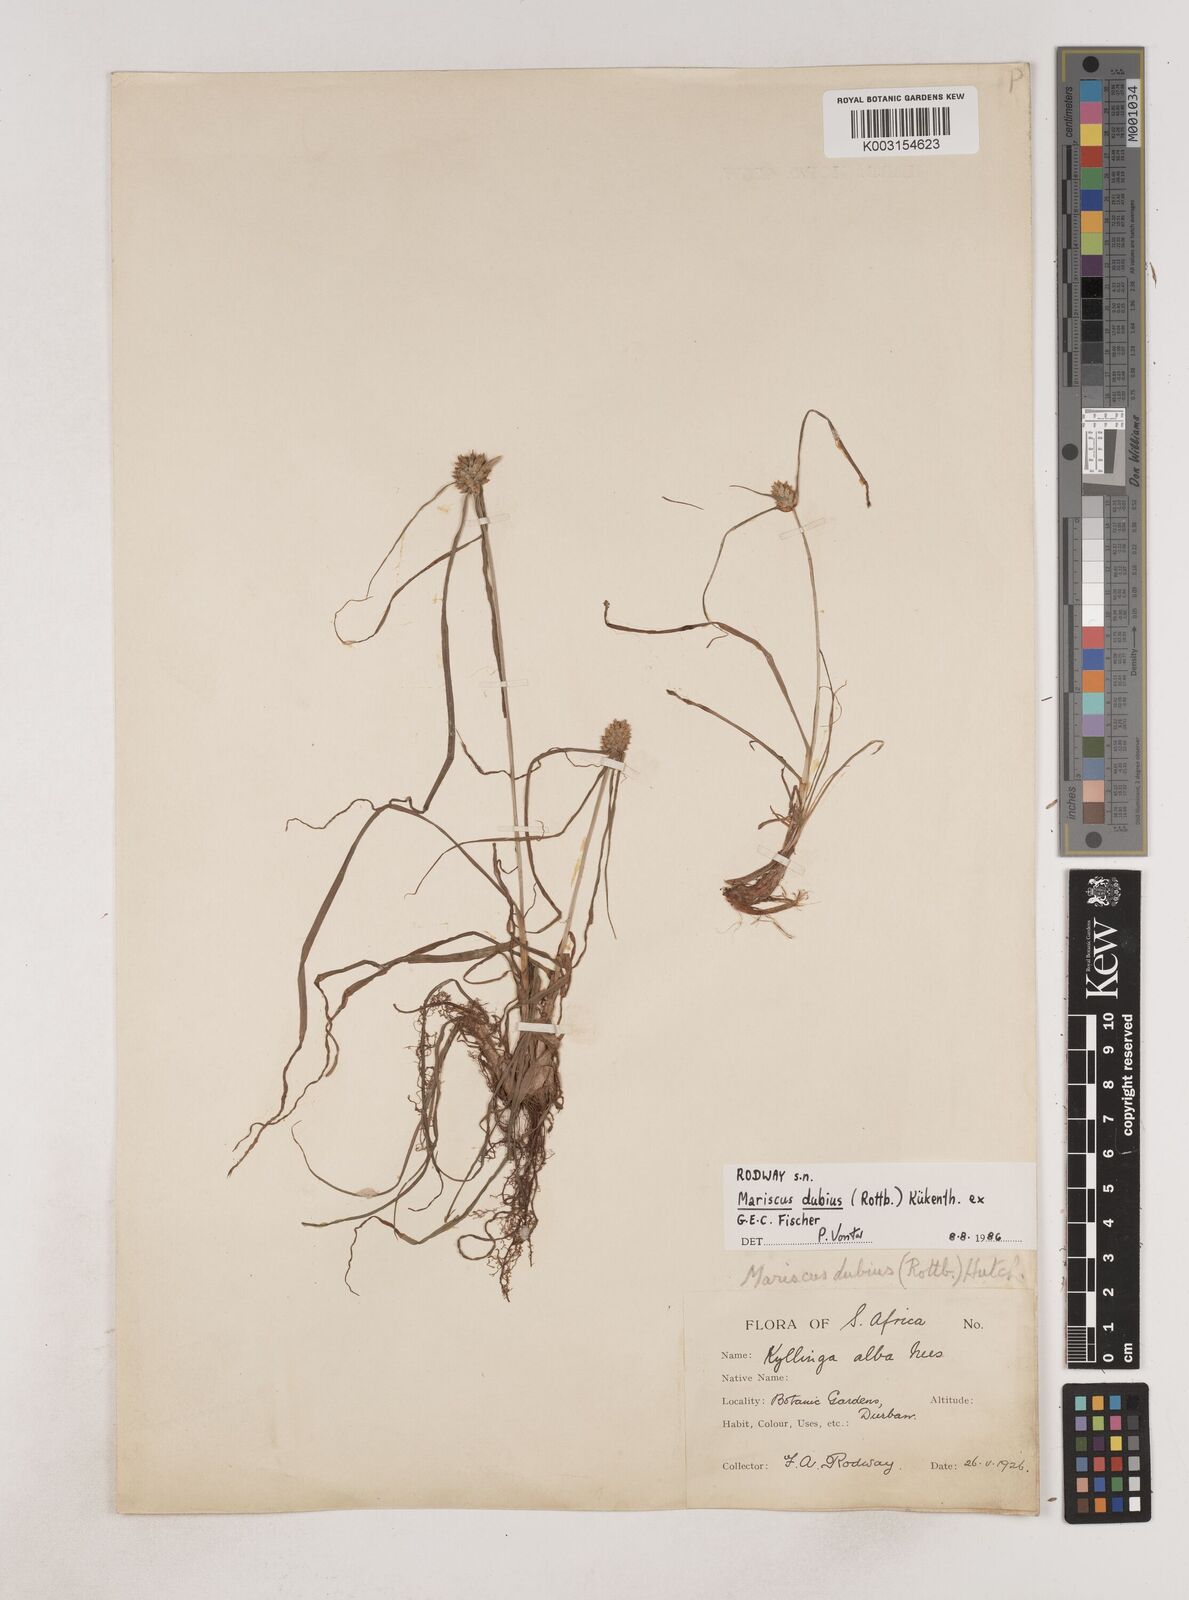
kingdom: Plantae
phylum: Tracheophyta
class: Liliopsida
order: Poales
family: Cyperaceae
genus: Cyperus
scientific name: Cyperus dubius
